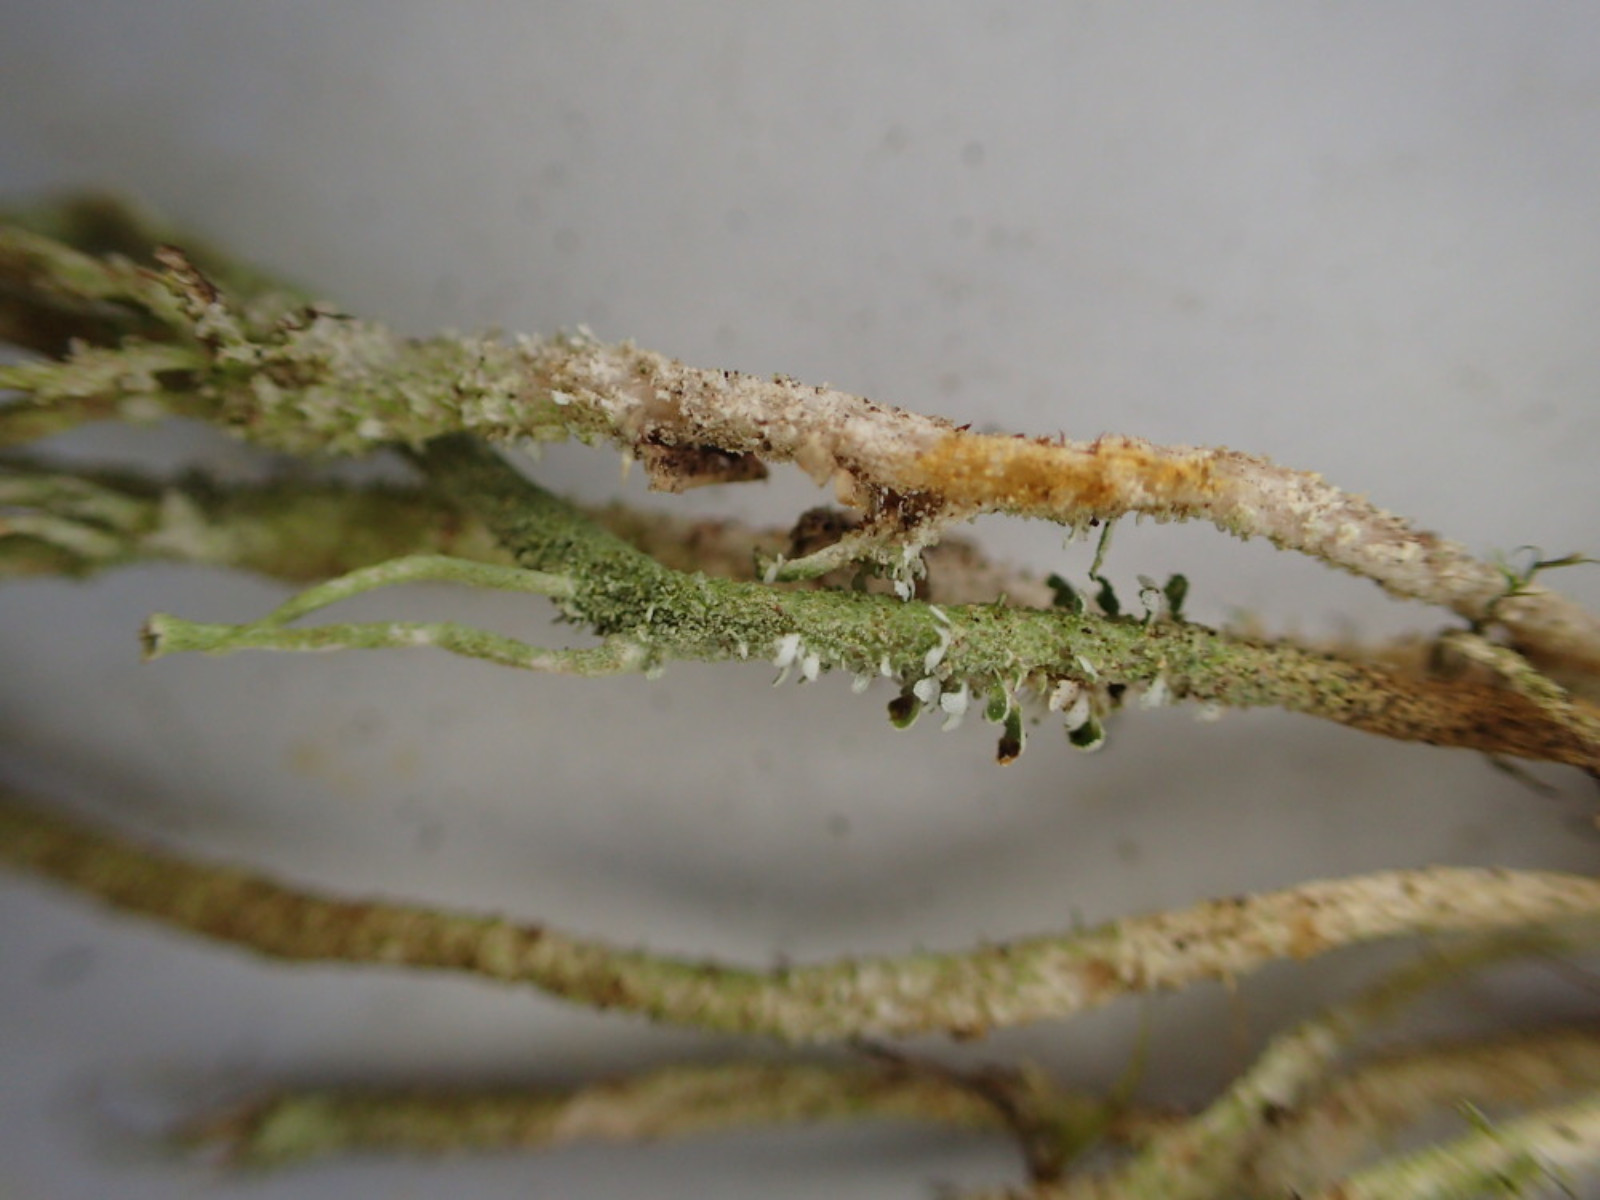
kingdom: Fungi
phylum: Ascomycota
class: Lecanoromycetes
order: Lecanorales
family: Cladoniaceae
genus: Cladonia
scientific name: Cladonia scabriuscula
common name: ru bægerlav
